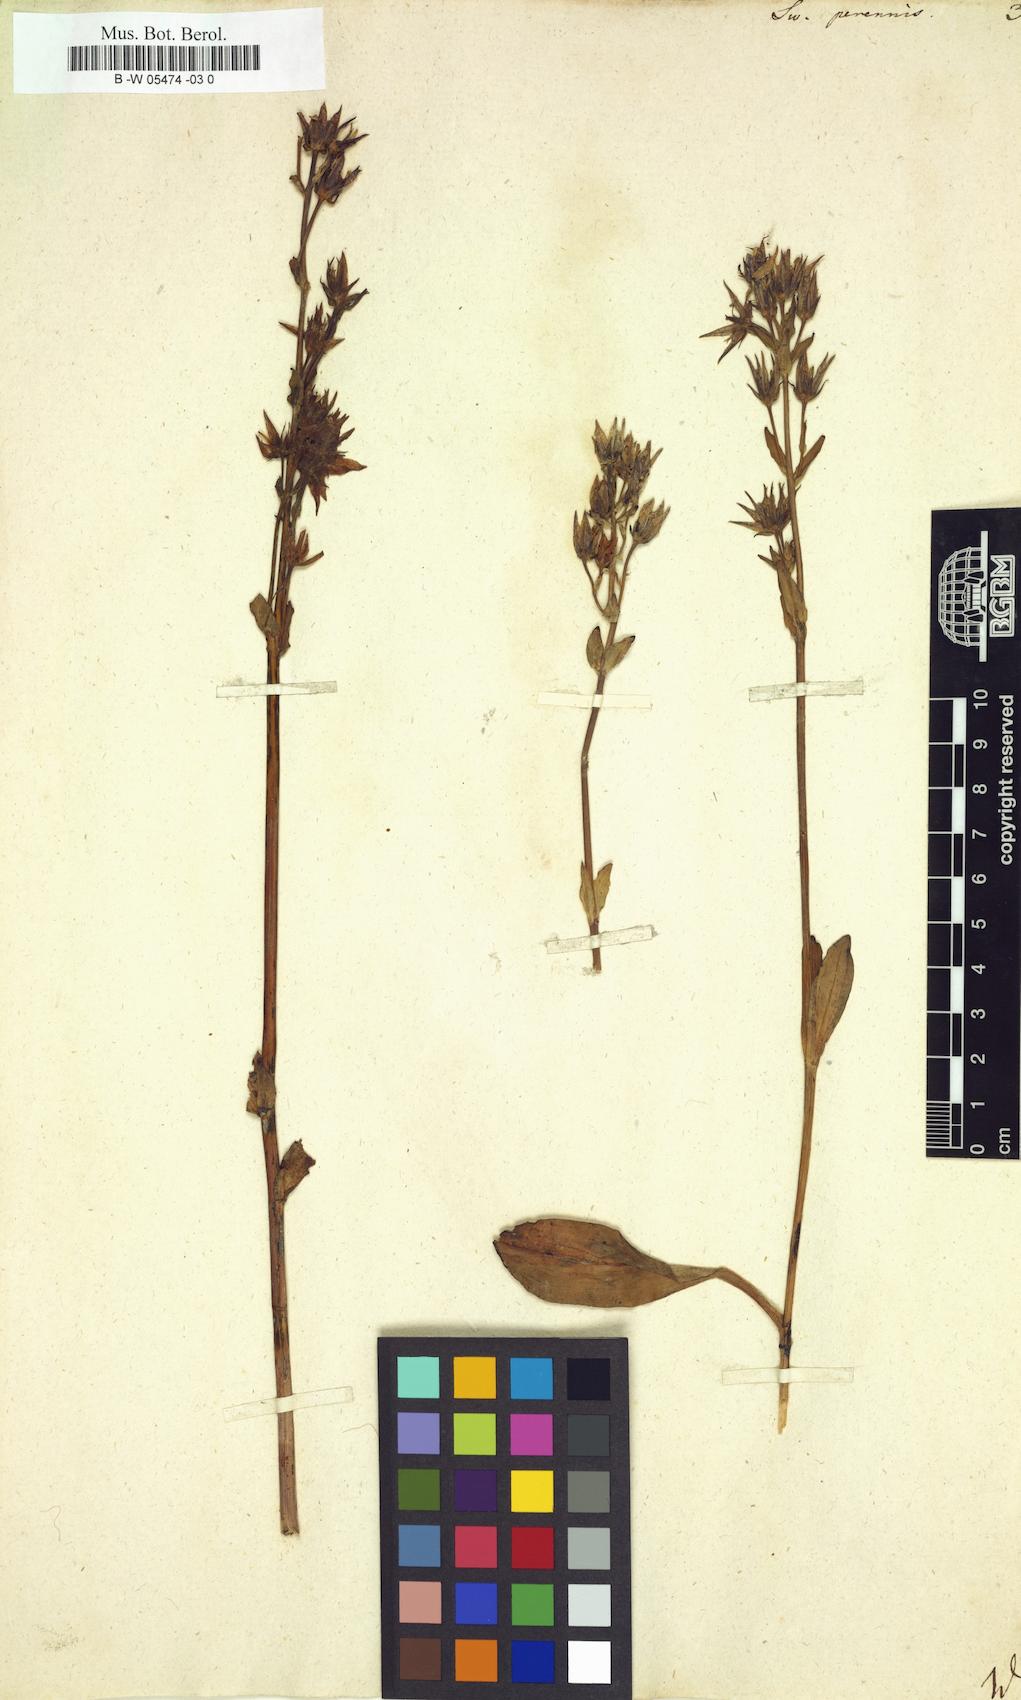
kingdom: Plantae
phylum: Tracheophyta
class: Magnoliopsida
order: Gentianales
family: Gentianaceae
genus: Swertia
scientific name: Swertia perennis
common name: Alpine bog swertia
